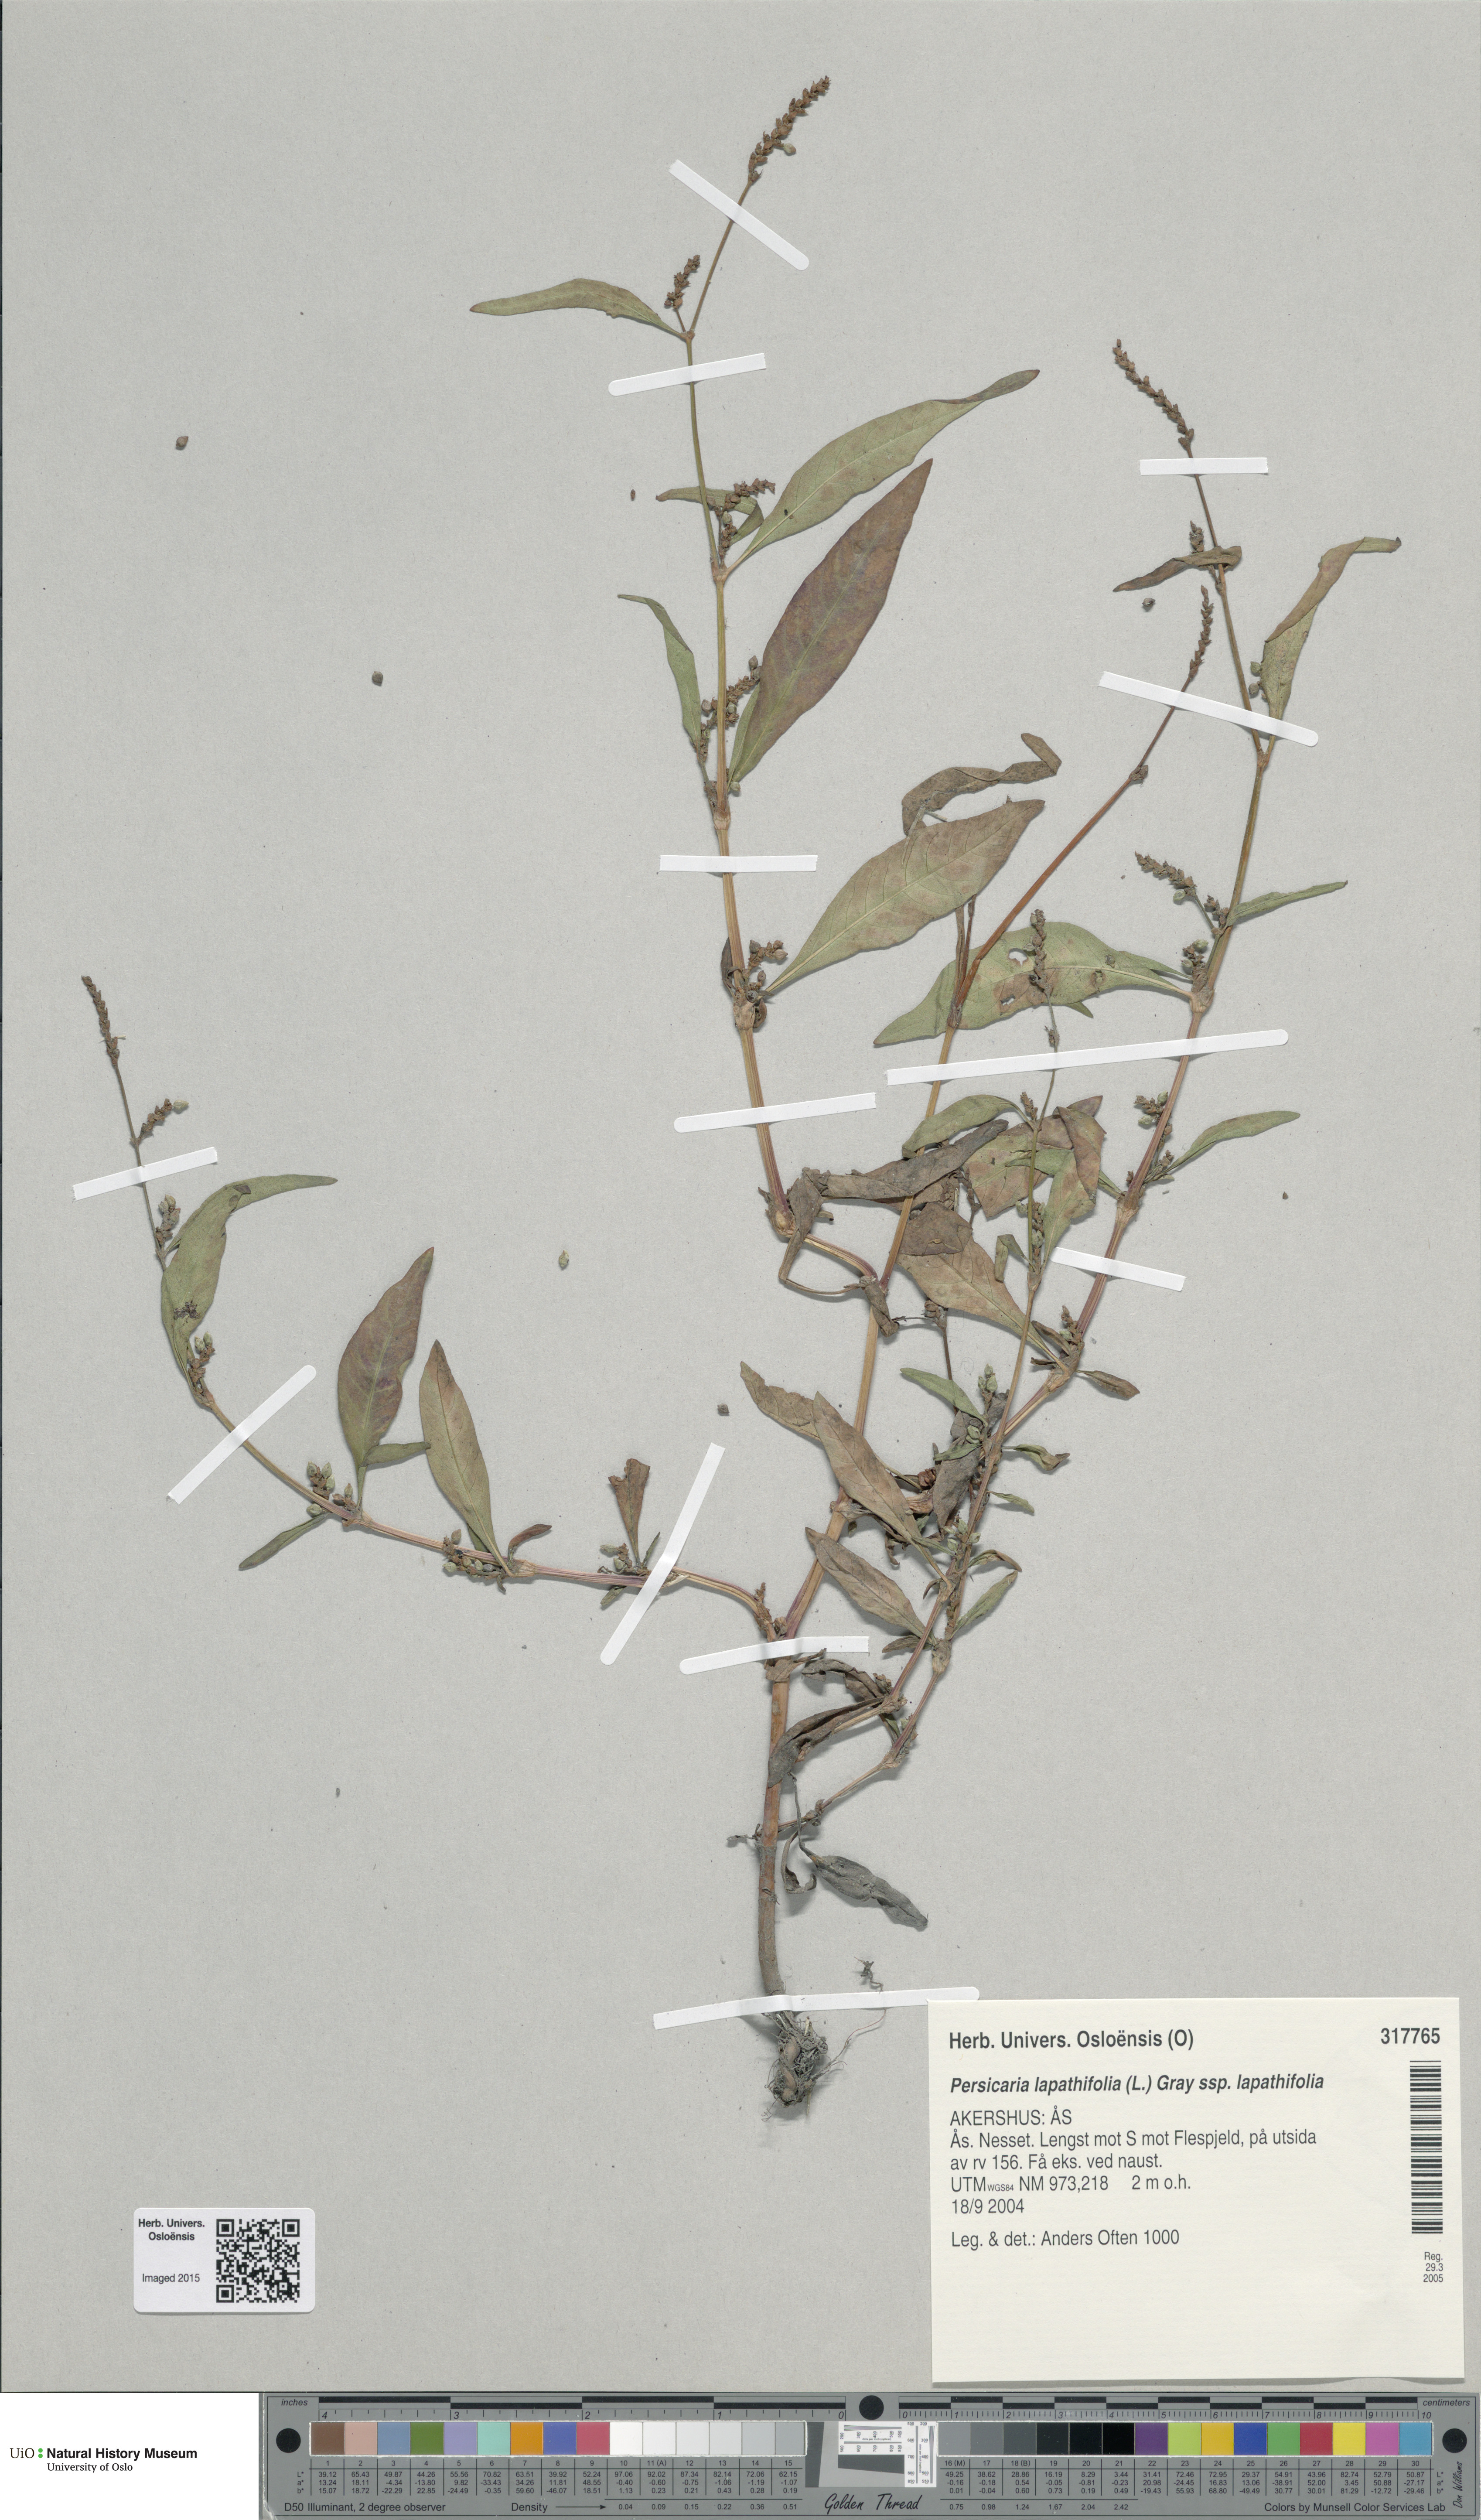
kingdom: Plantae
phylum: Tracheophyta
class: Magnoliopsida
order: Caryophyllales
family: Polygonaceae
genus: Persicaria
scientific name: Persicaria lapathifolia
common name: Curlytop knotweed
